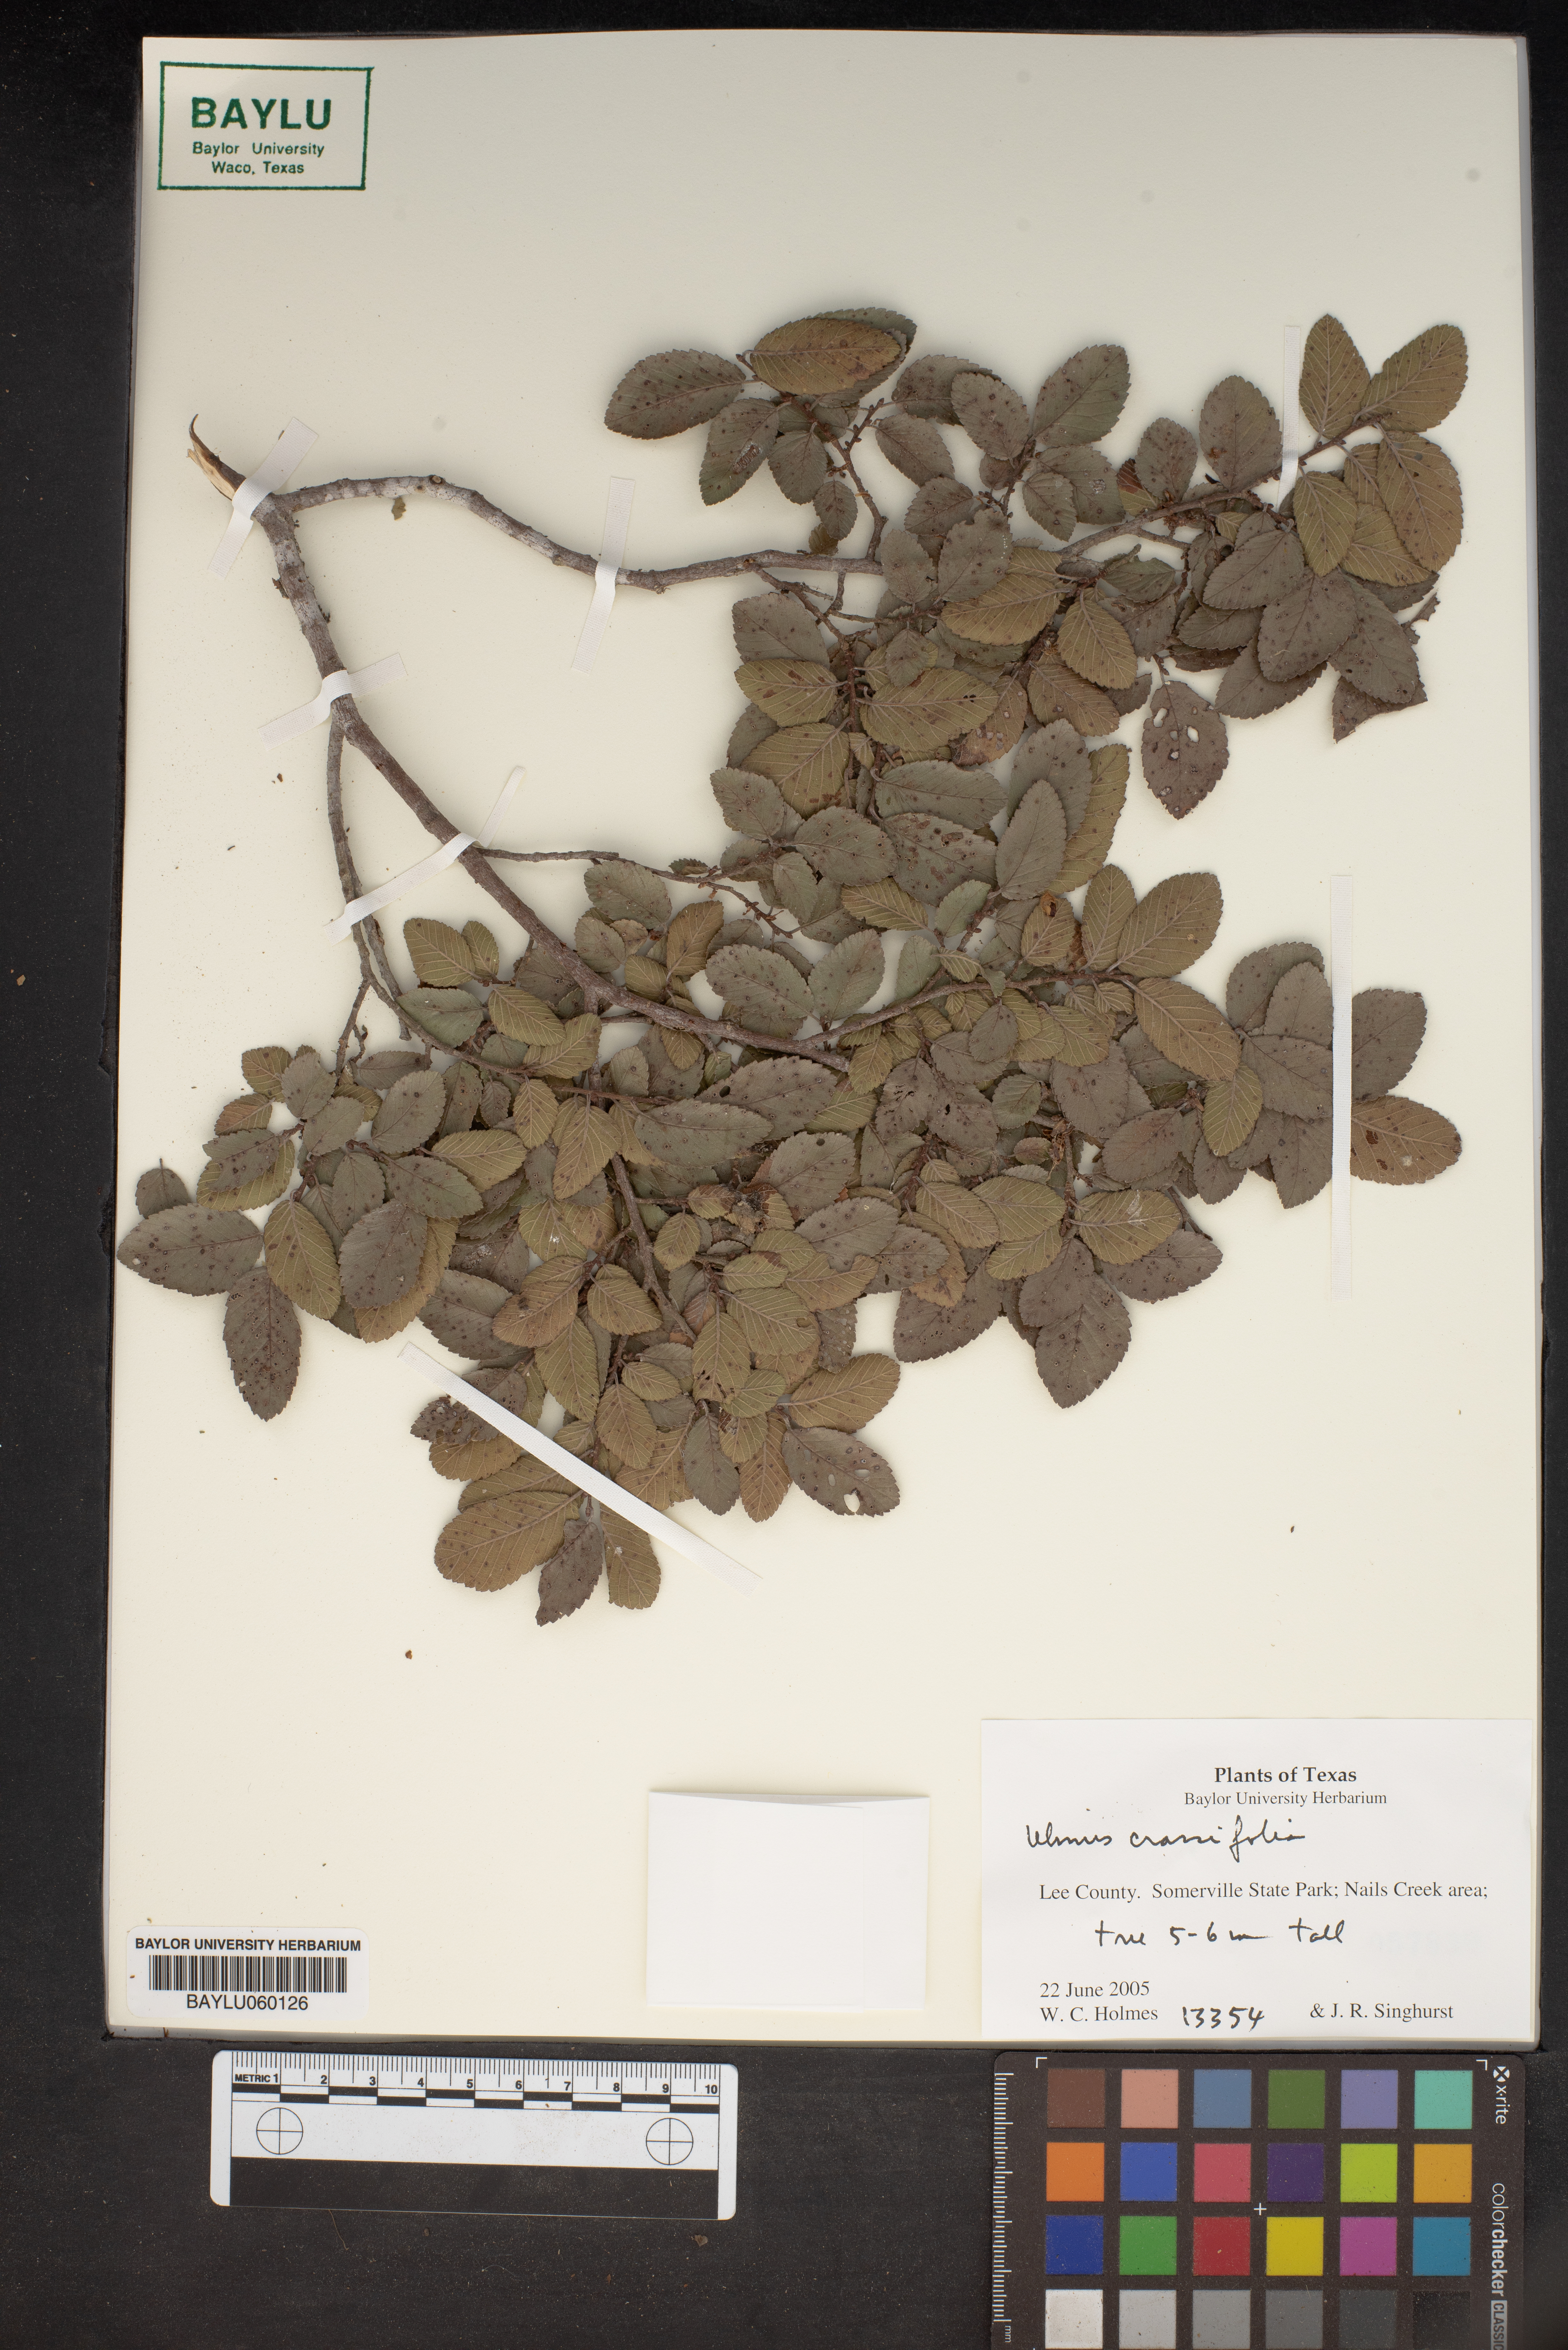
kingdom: Plantae
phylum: Tracheophyta
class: Magnoliopsida
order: Rosales
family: Ulmaceae
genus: Ulmus
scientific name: Ulmus crassifolia
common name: Basket elm
